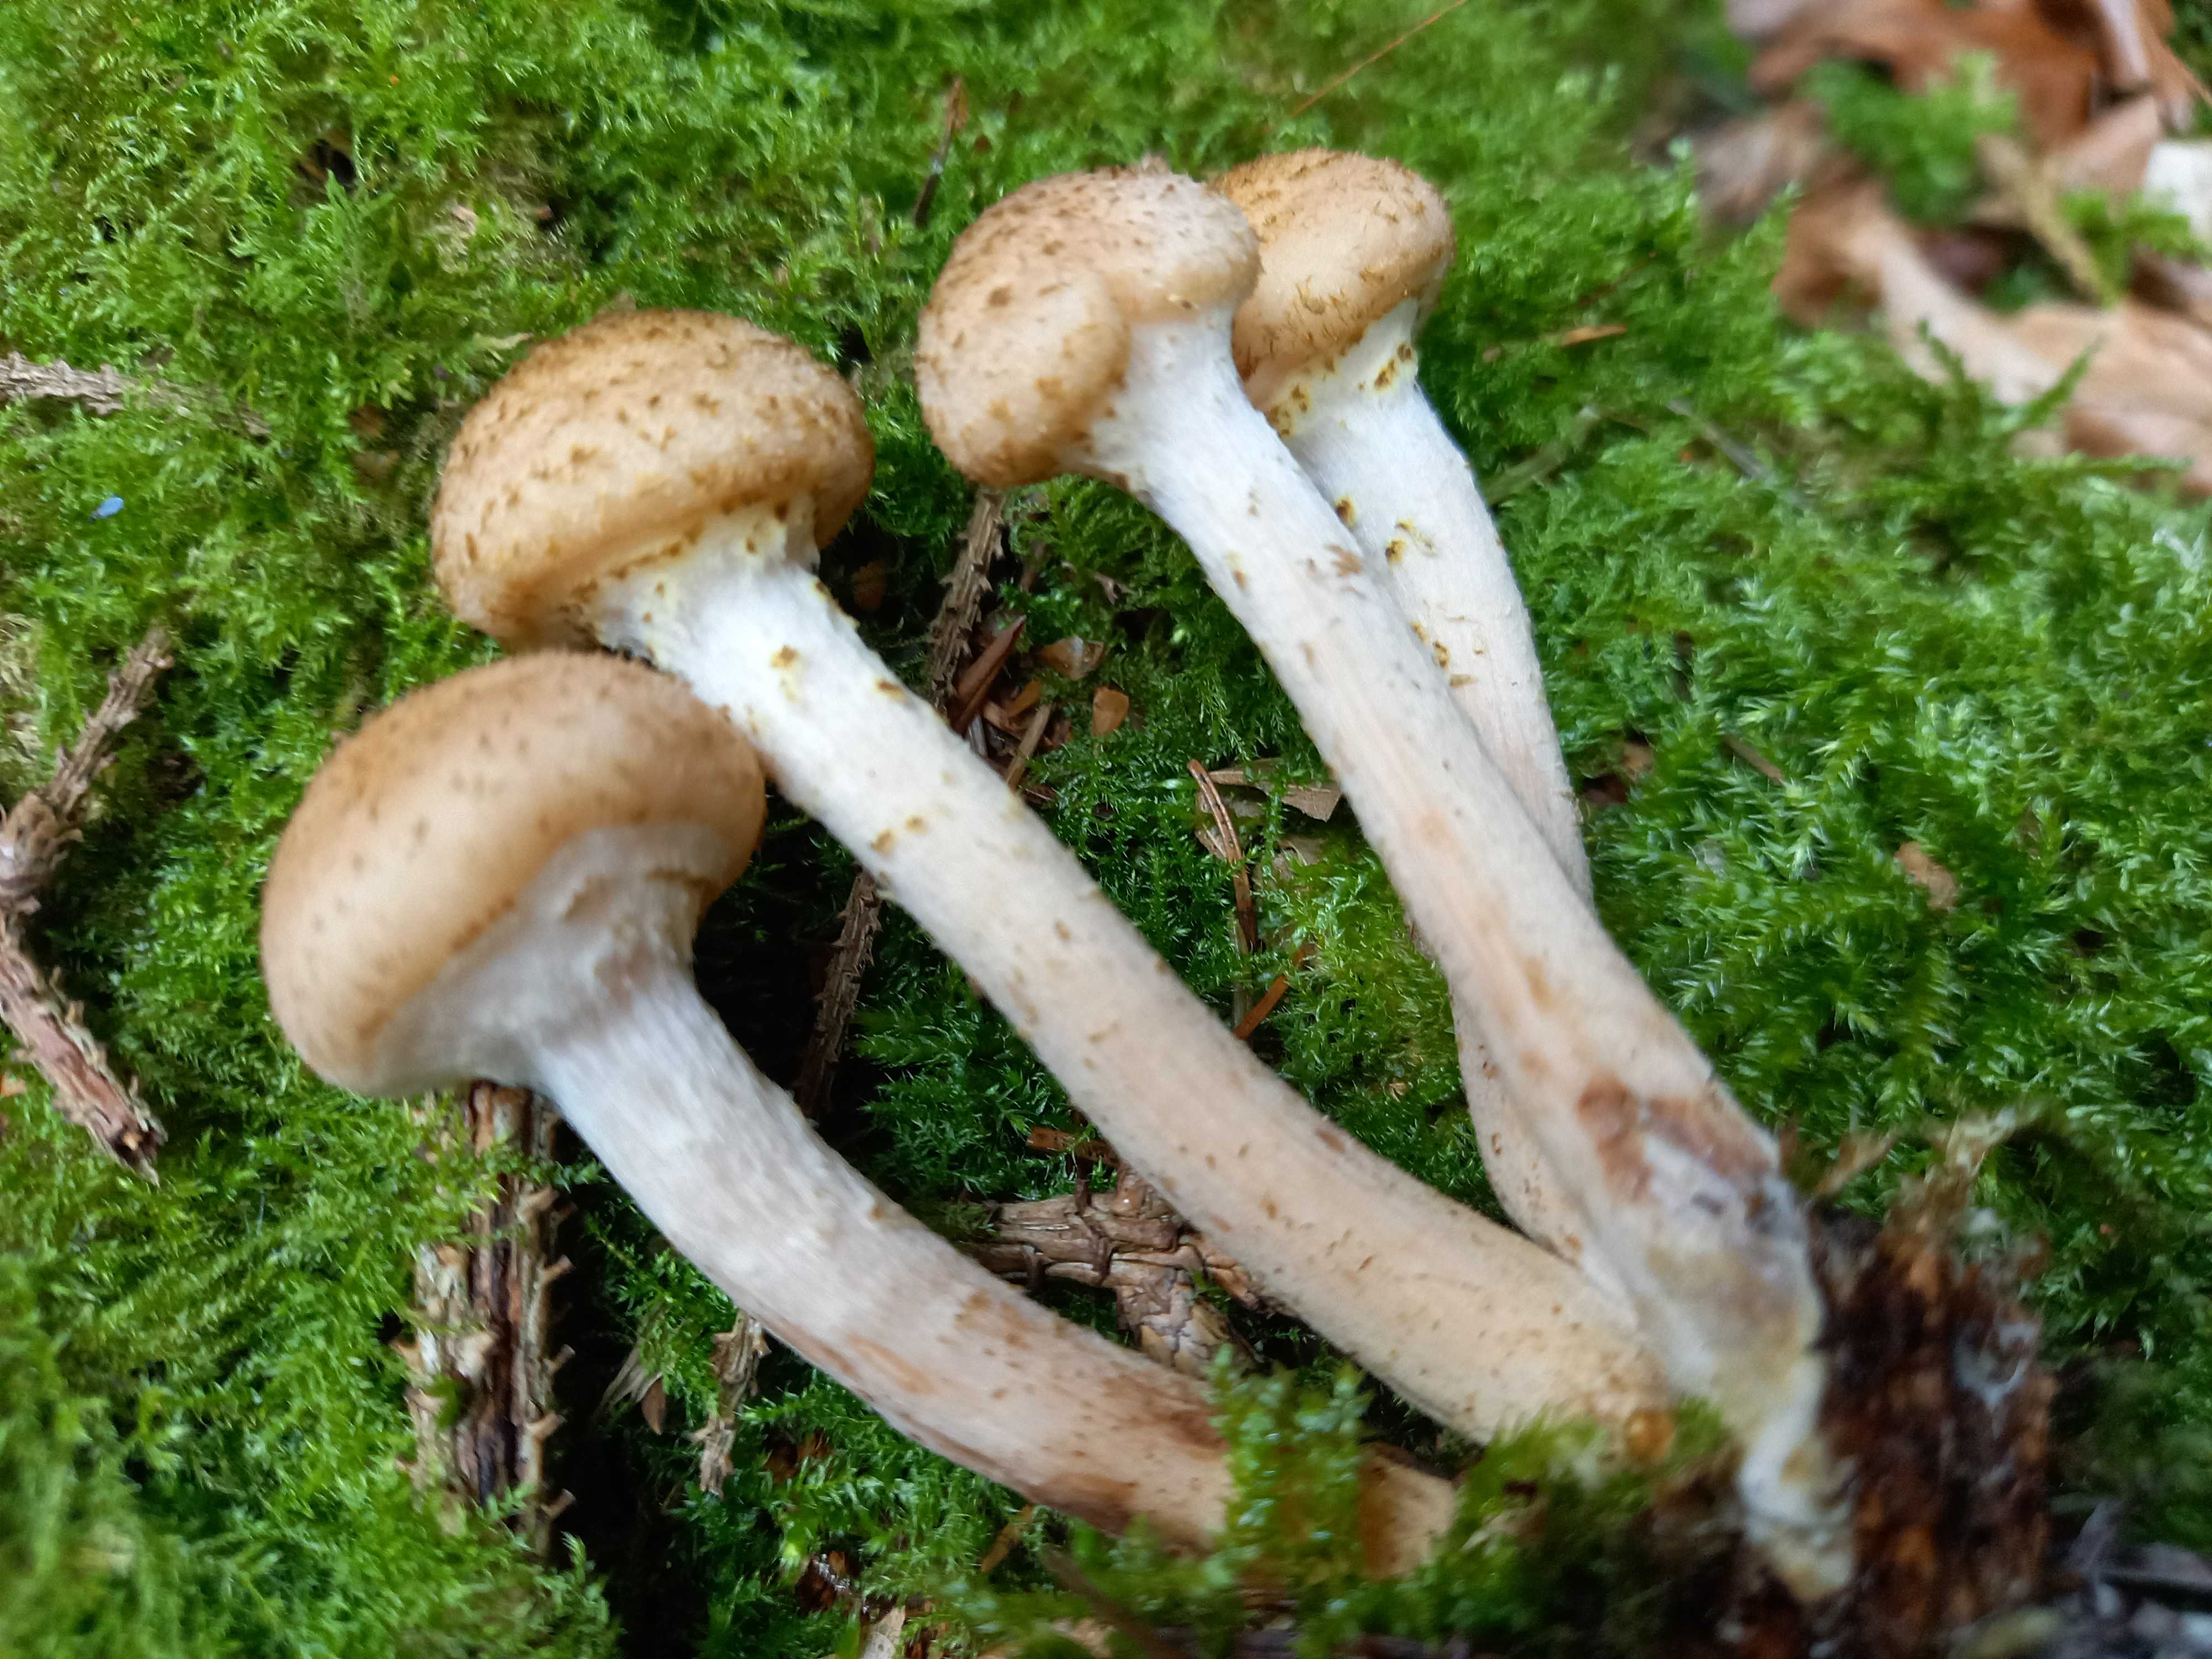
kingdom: Fungi
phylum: Basidiomycota
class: Agaricomycetes
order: Agaricales
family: Physalacriaceae
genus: Armillaria
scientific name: Armillaria ostoyae
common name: mørk honningsvamp
